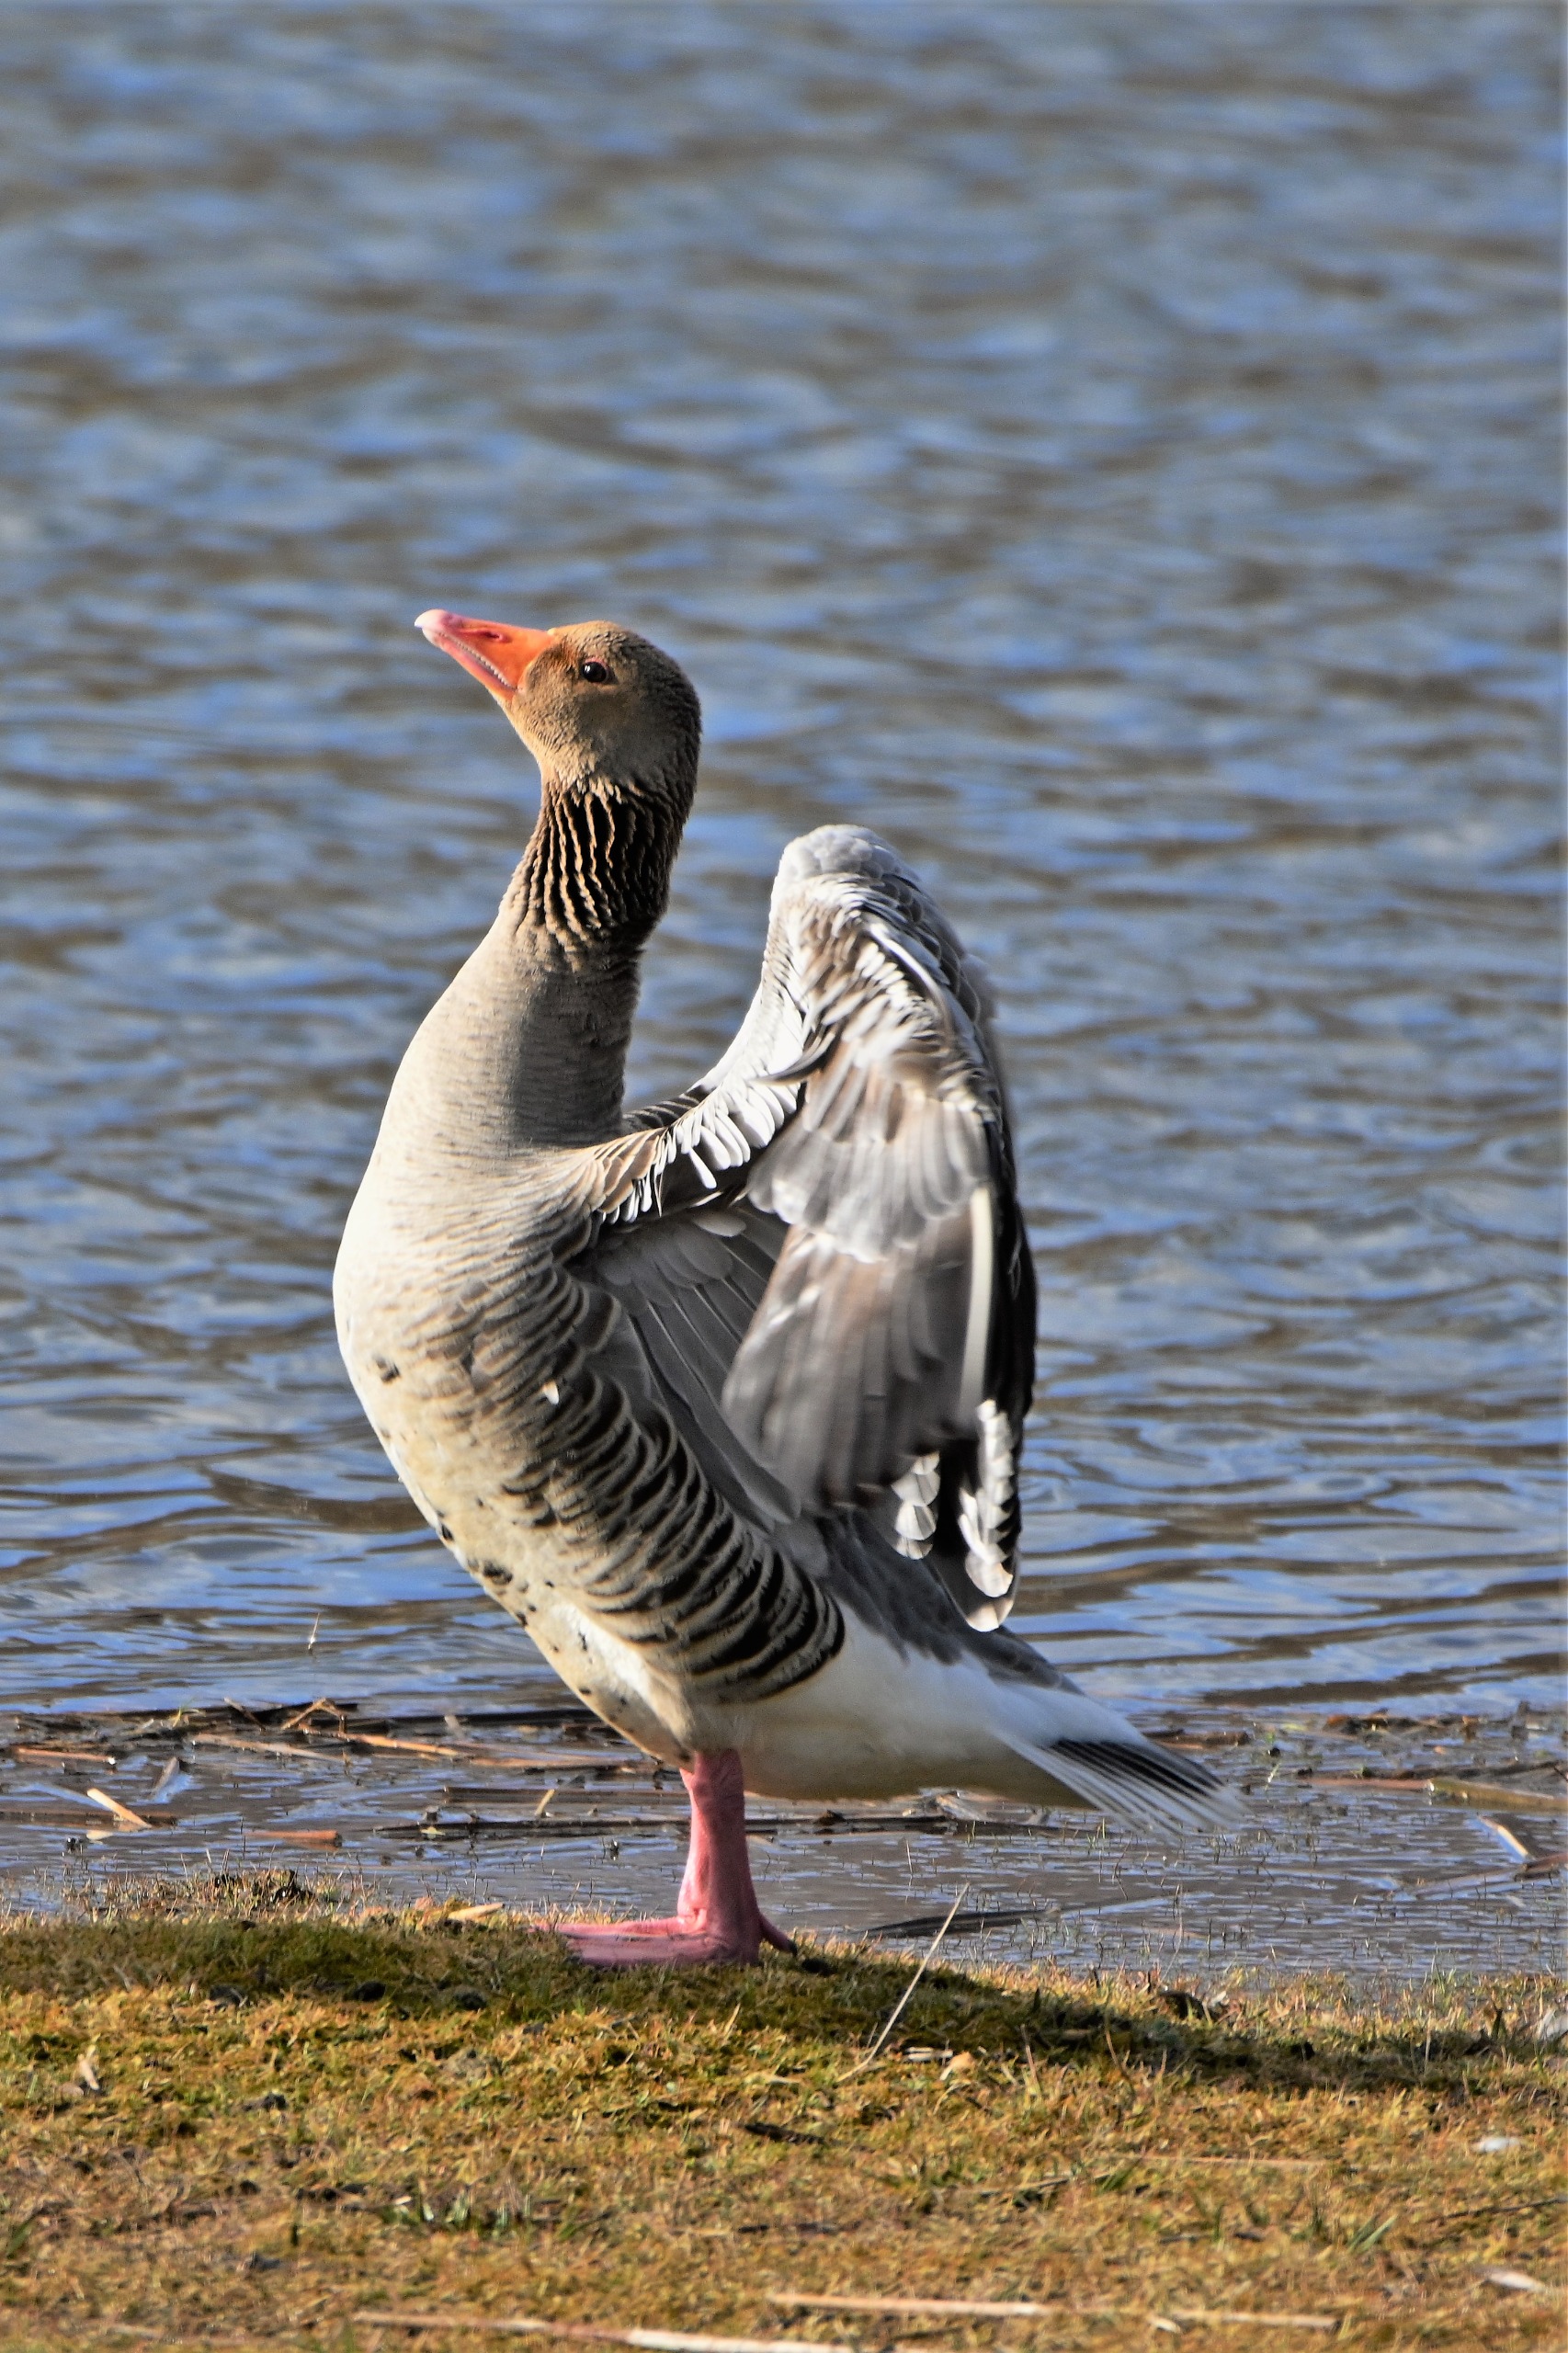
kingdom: Animalia
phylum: Chordata
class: Aves
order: Anseriformes
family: Anatidae
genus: Anser
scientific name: Anser anser
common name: Grågås
